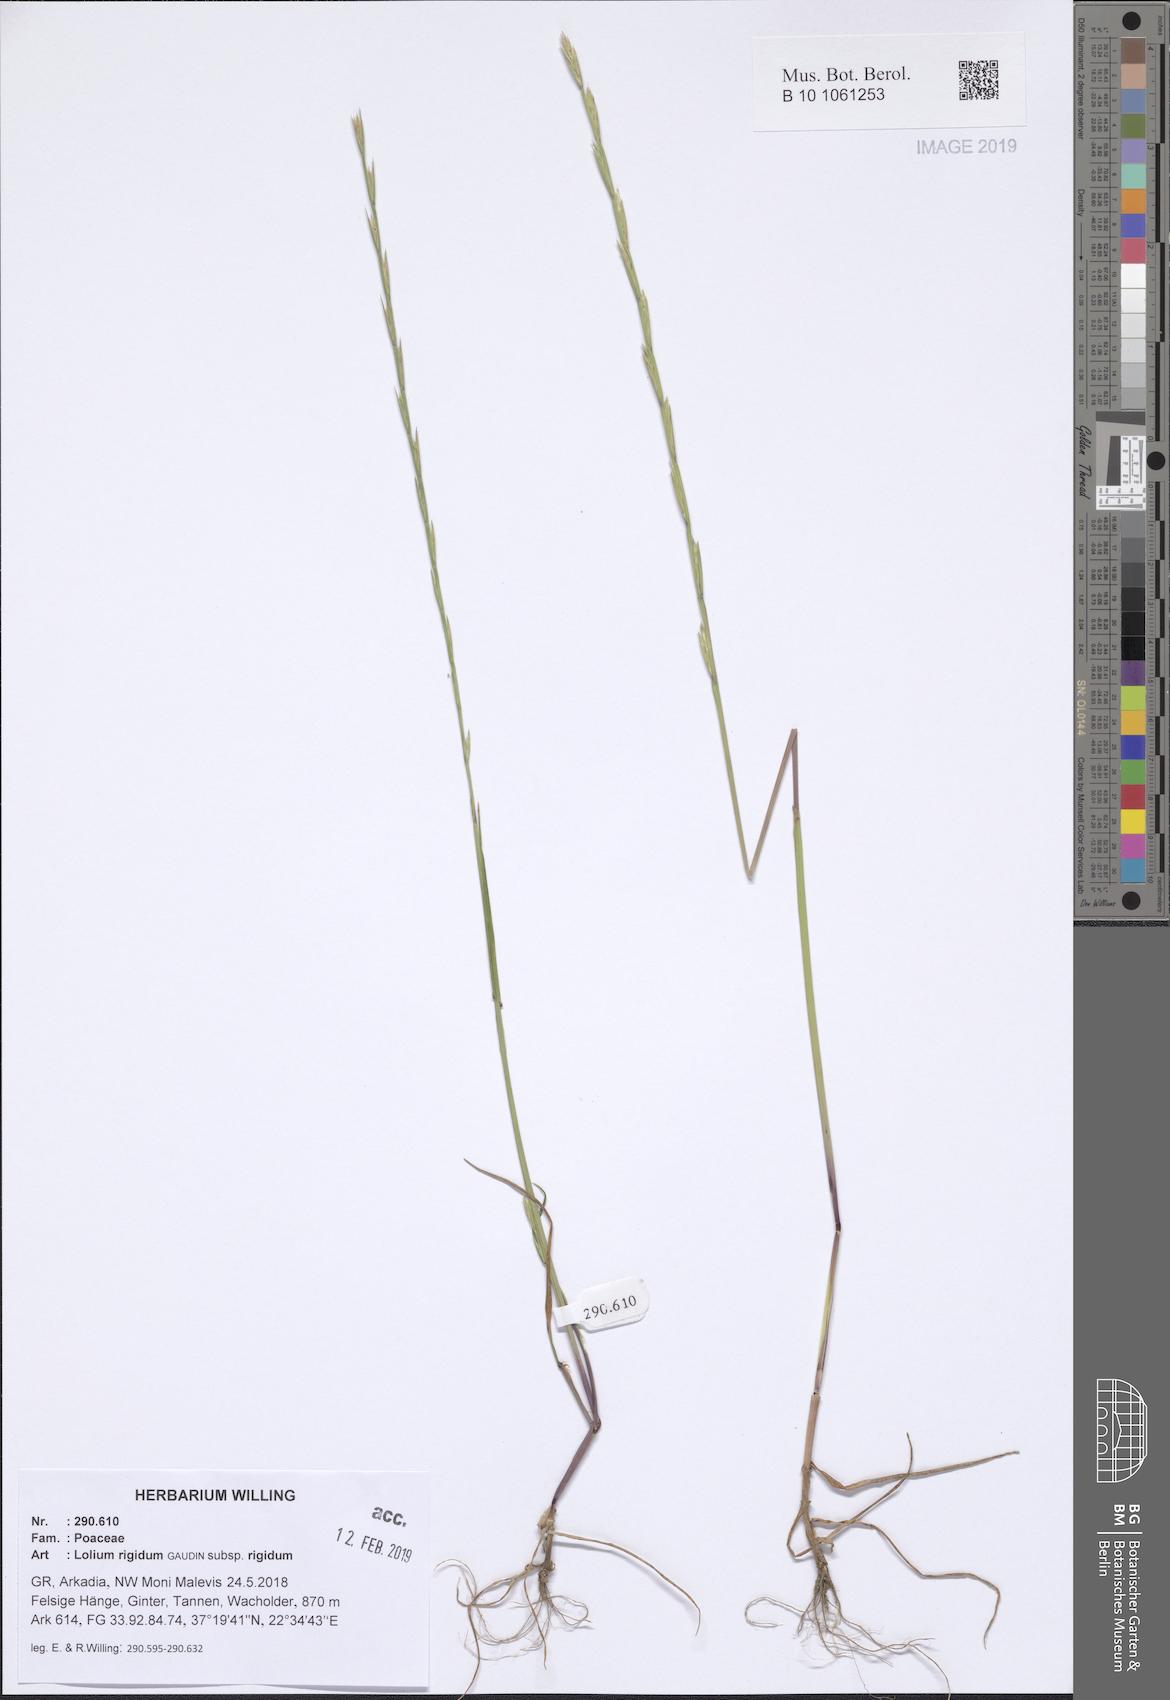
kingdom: Plantae
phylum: Tracheophyta
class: Liliopsida
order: Poales
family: Poaceae
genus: Lolium
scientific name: Lolium rigidum
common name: Wimmera ryegrass
